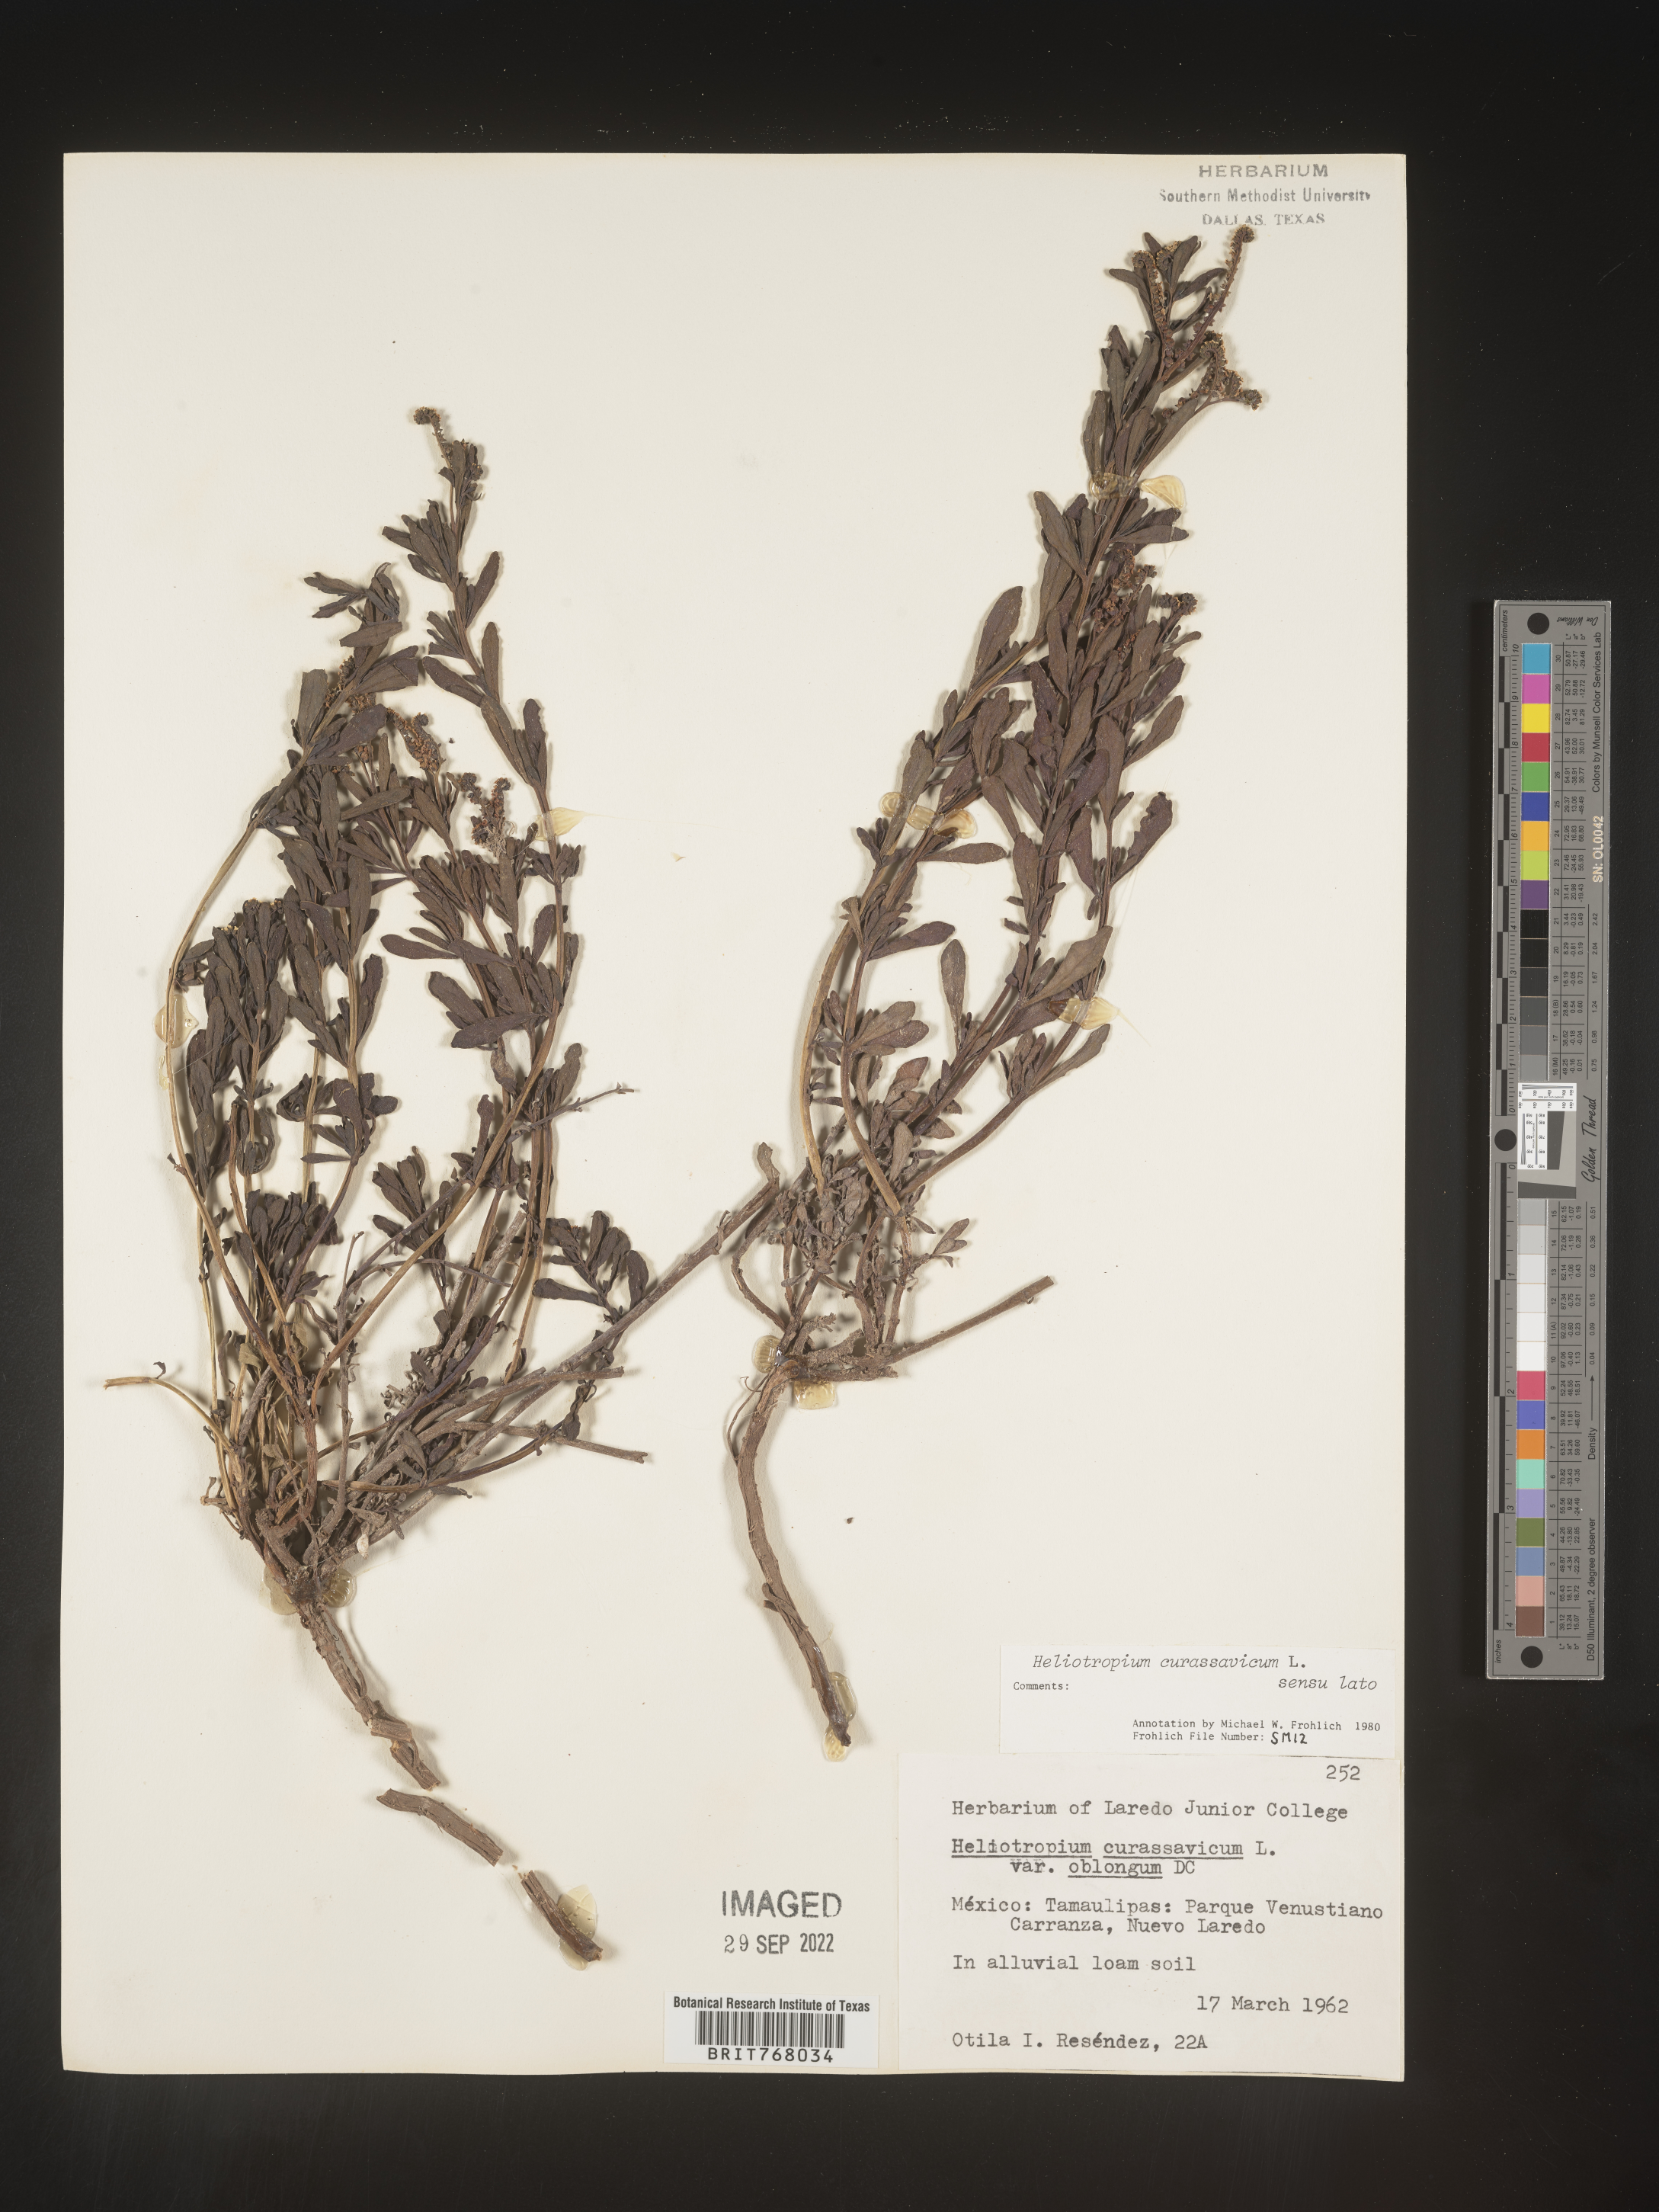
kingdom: Plantae
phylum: Tracheophyta
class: Magnoliopsida
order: Boraginales
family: Heliotropiaceae
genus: Heliotropium
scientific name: Heliotropium curassavicum
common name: Seaside heliotrope
